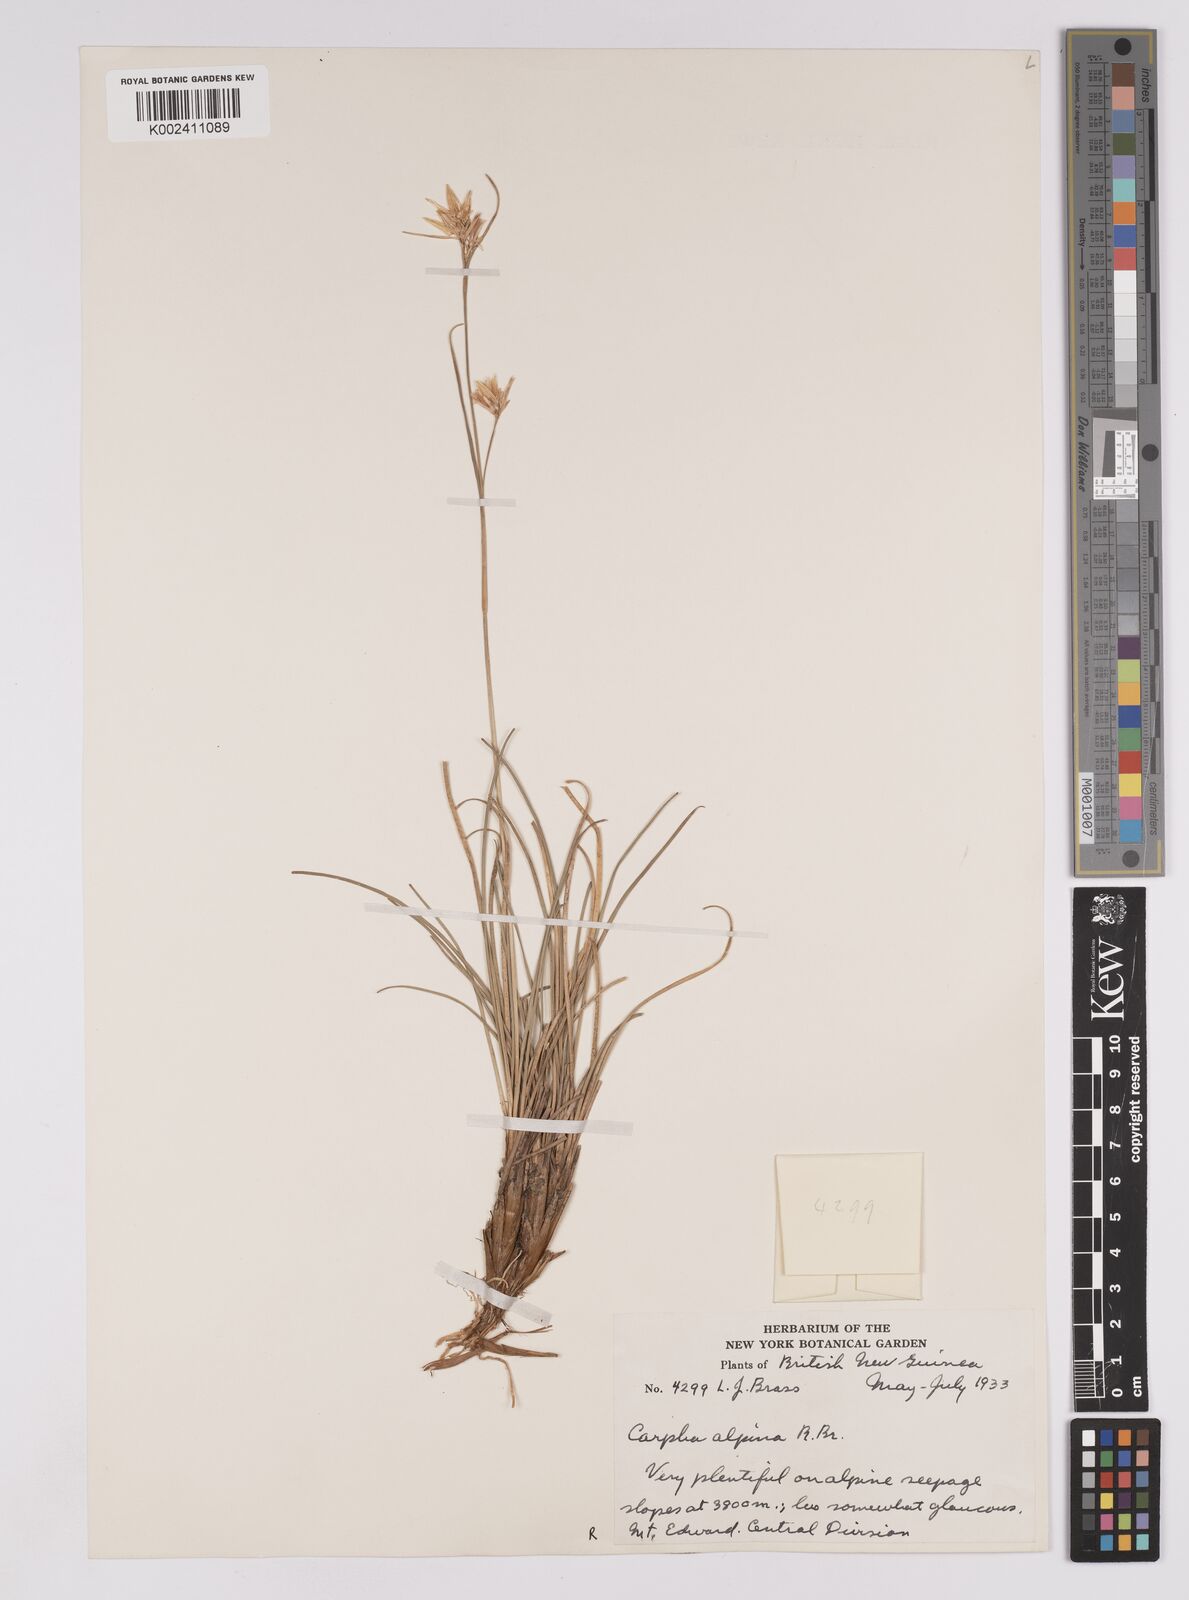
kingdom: Plantae
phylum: Tracheophyta
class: Liliopsida
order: Poales
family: Cyperaceae
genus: Carpha
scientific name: Carpha alpina
